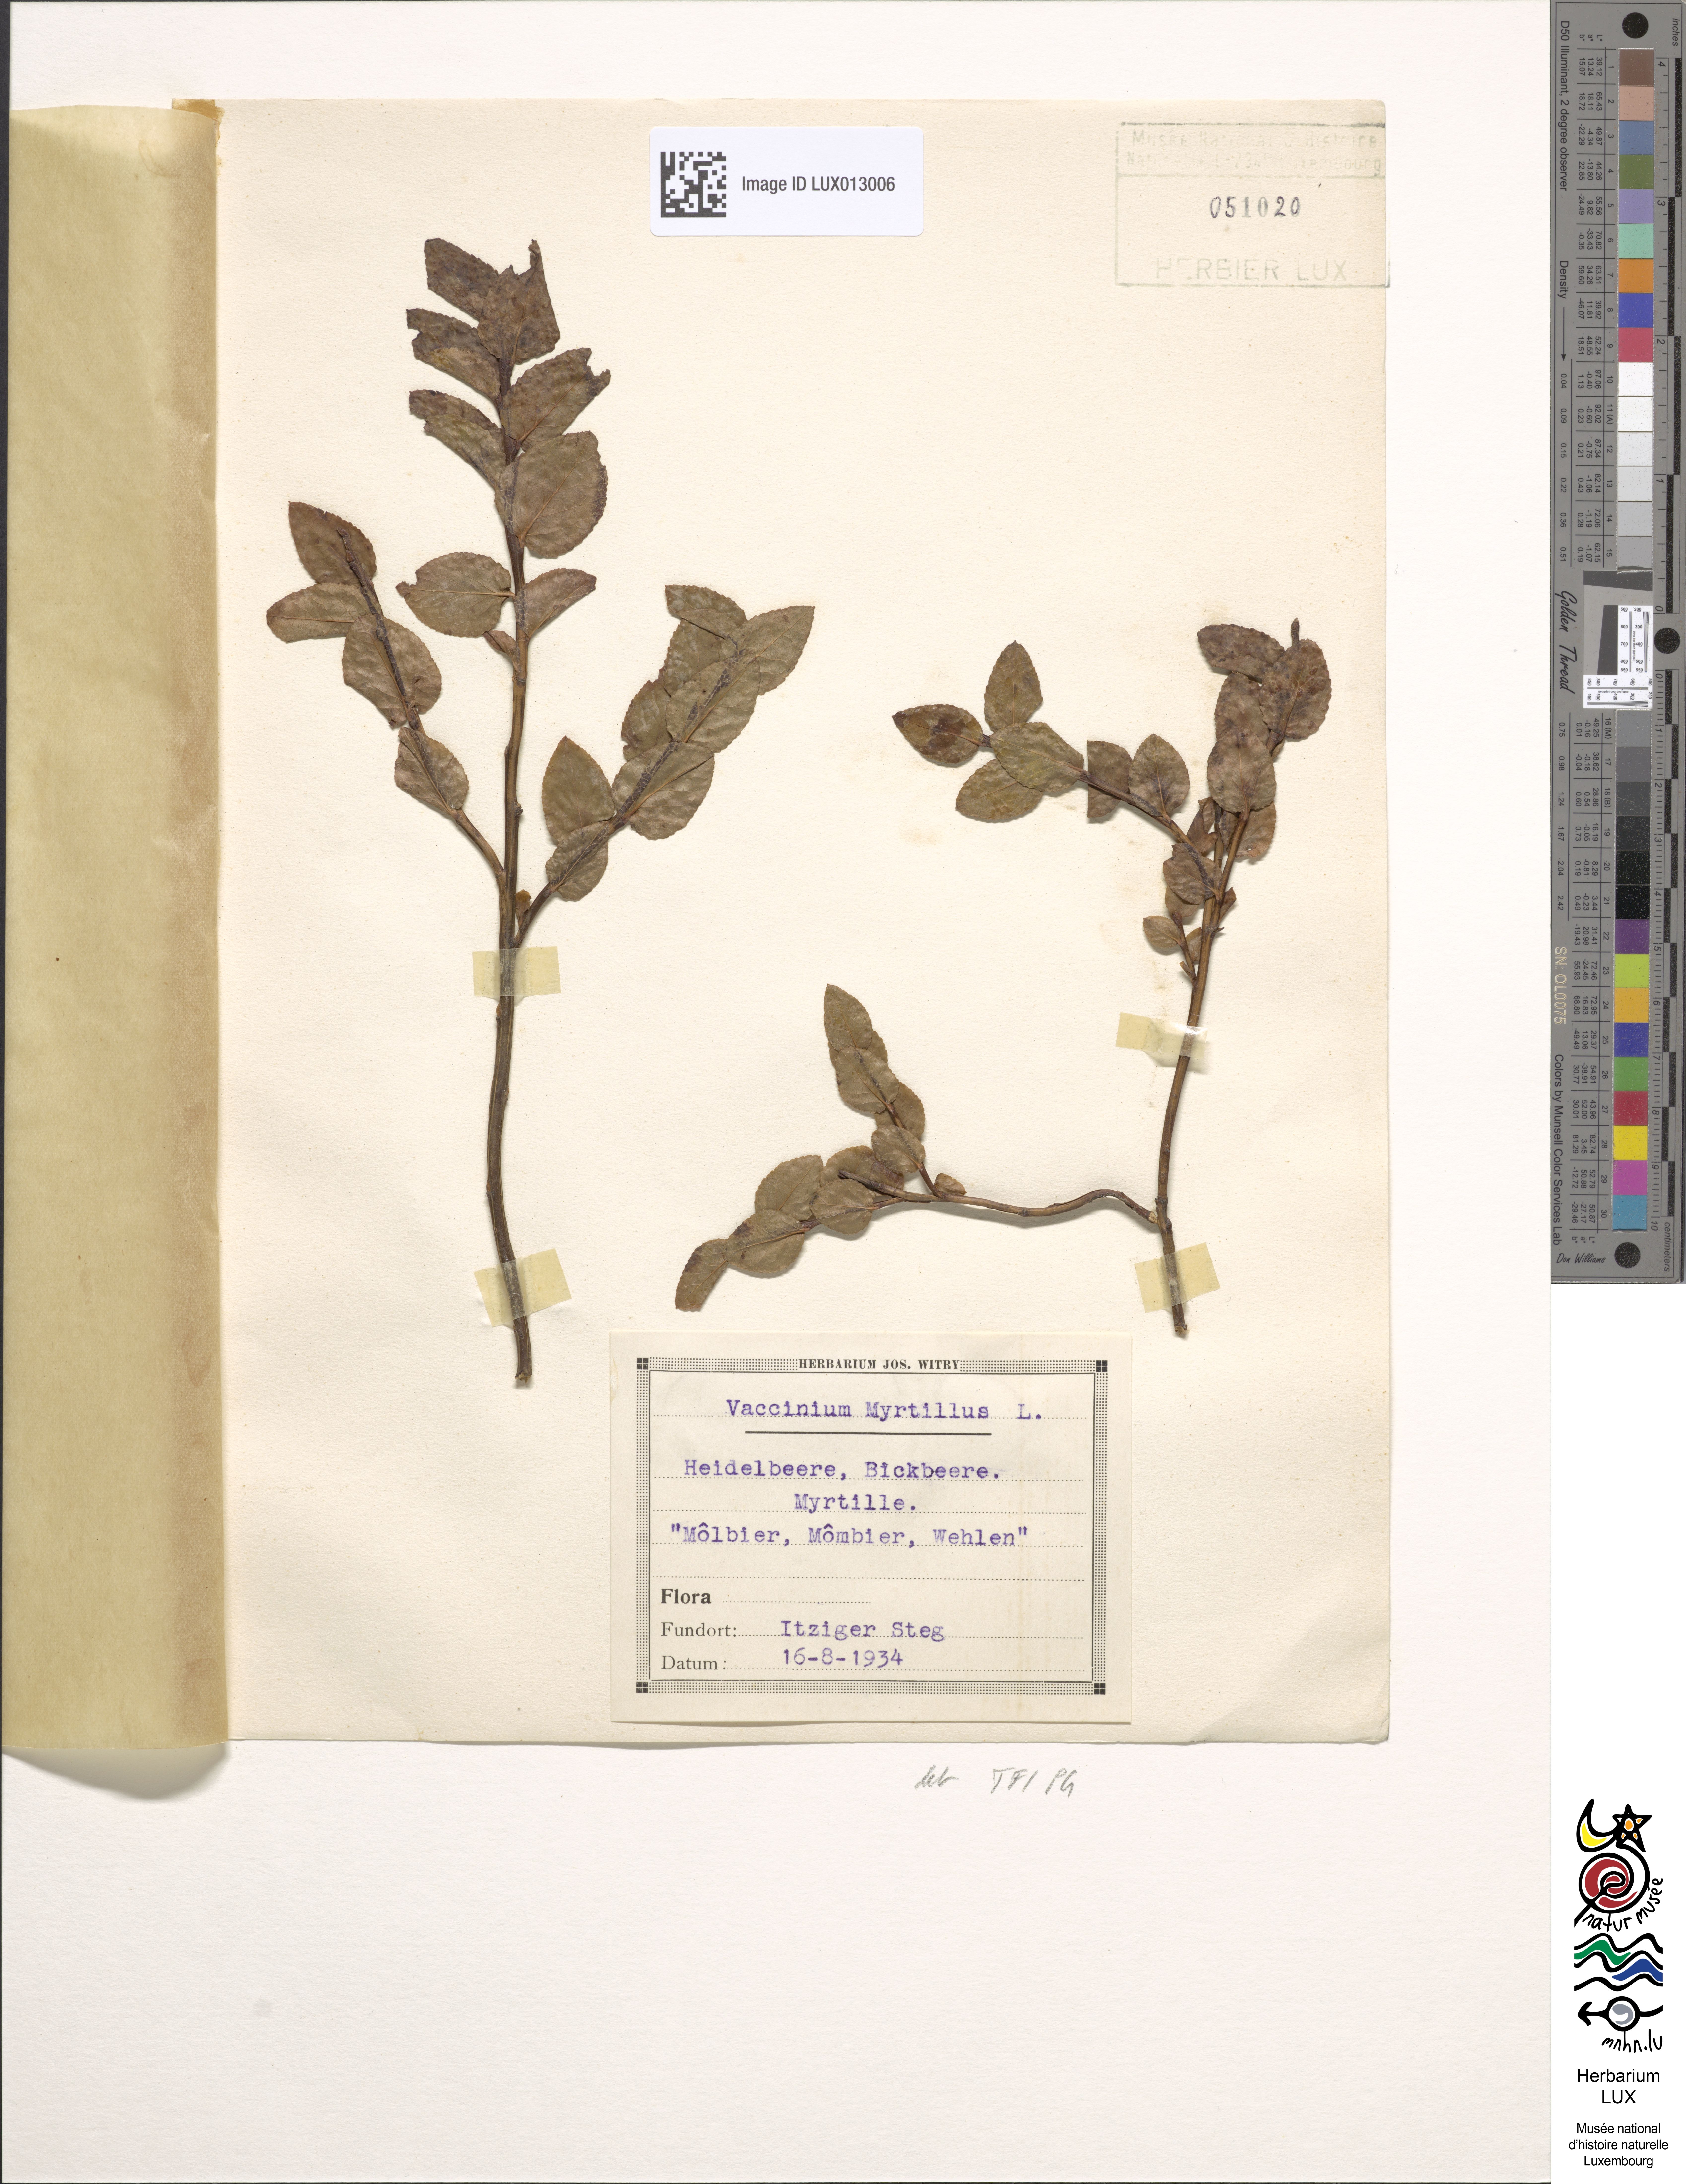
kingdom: Plantae
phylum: Tracheophyta
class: Magnoliopsida
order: Ericales
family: Ericaceae
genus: Vaccinium
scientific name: Vaccinium myrtillus
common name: Bilberry
